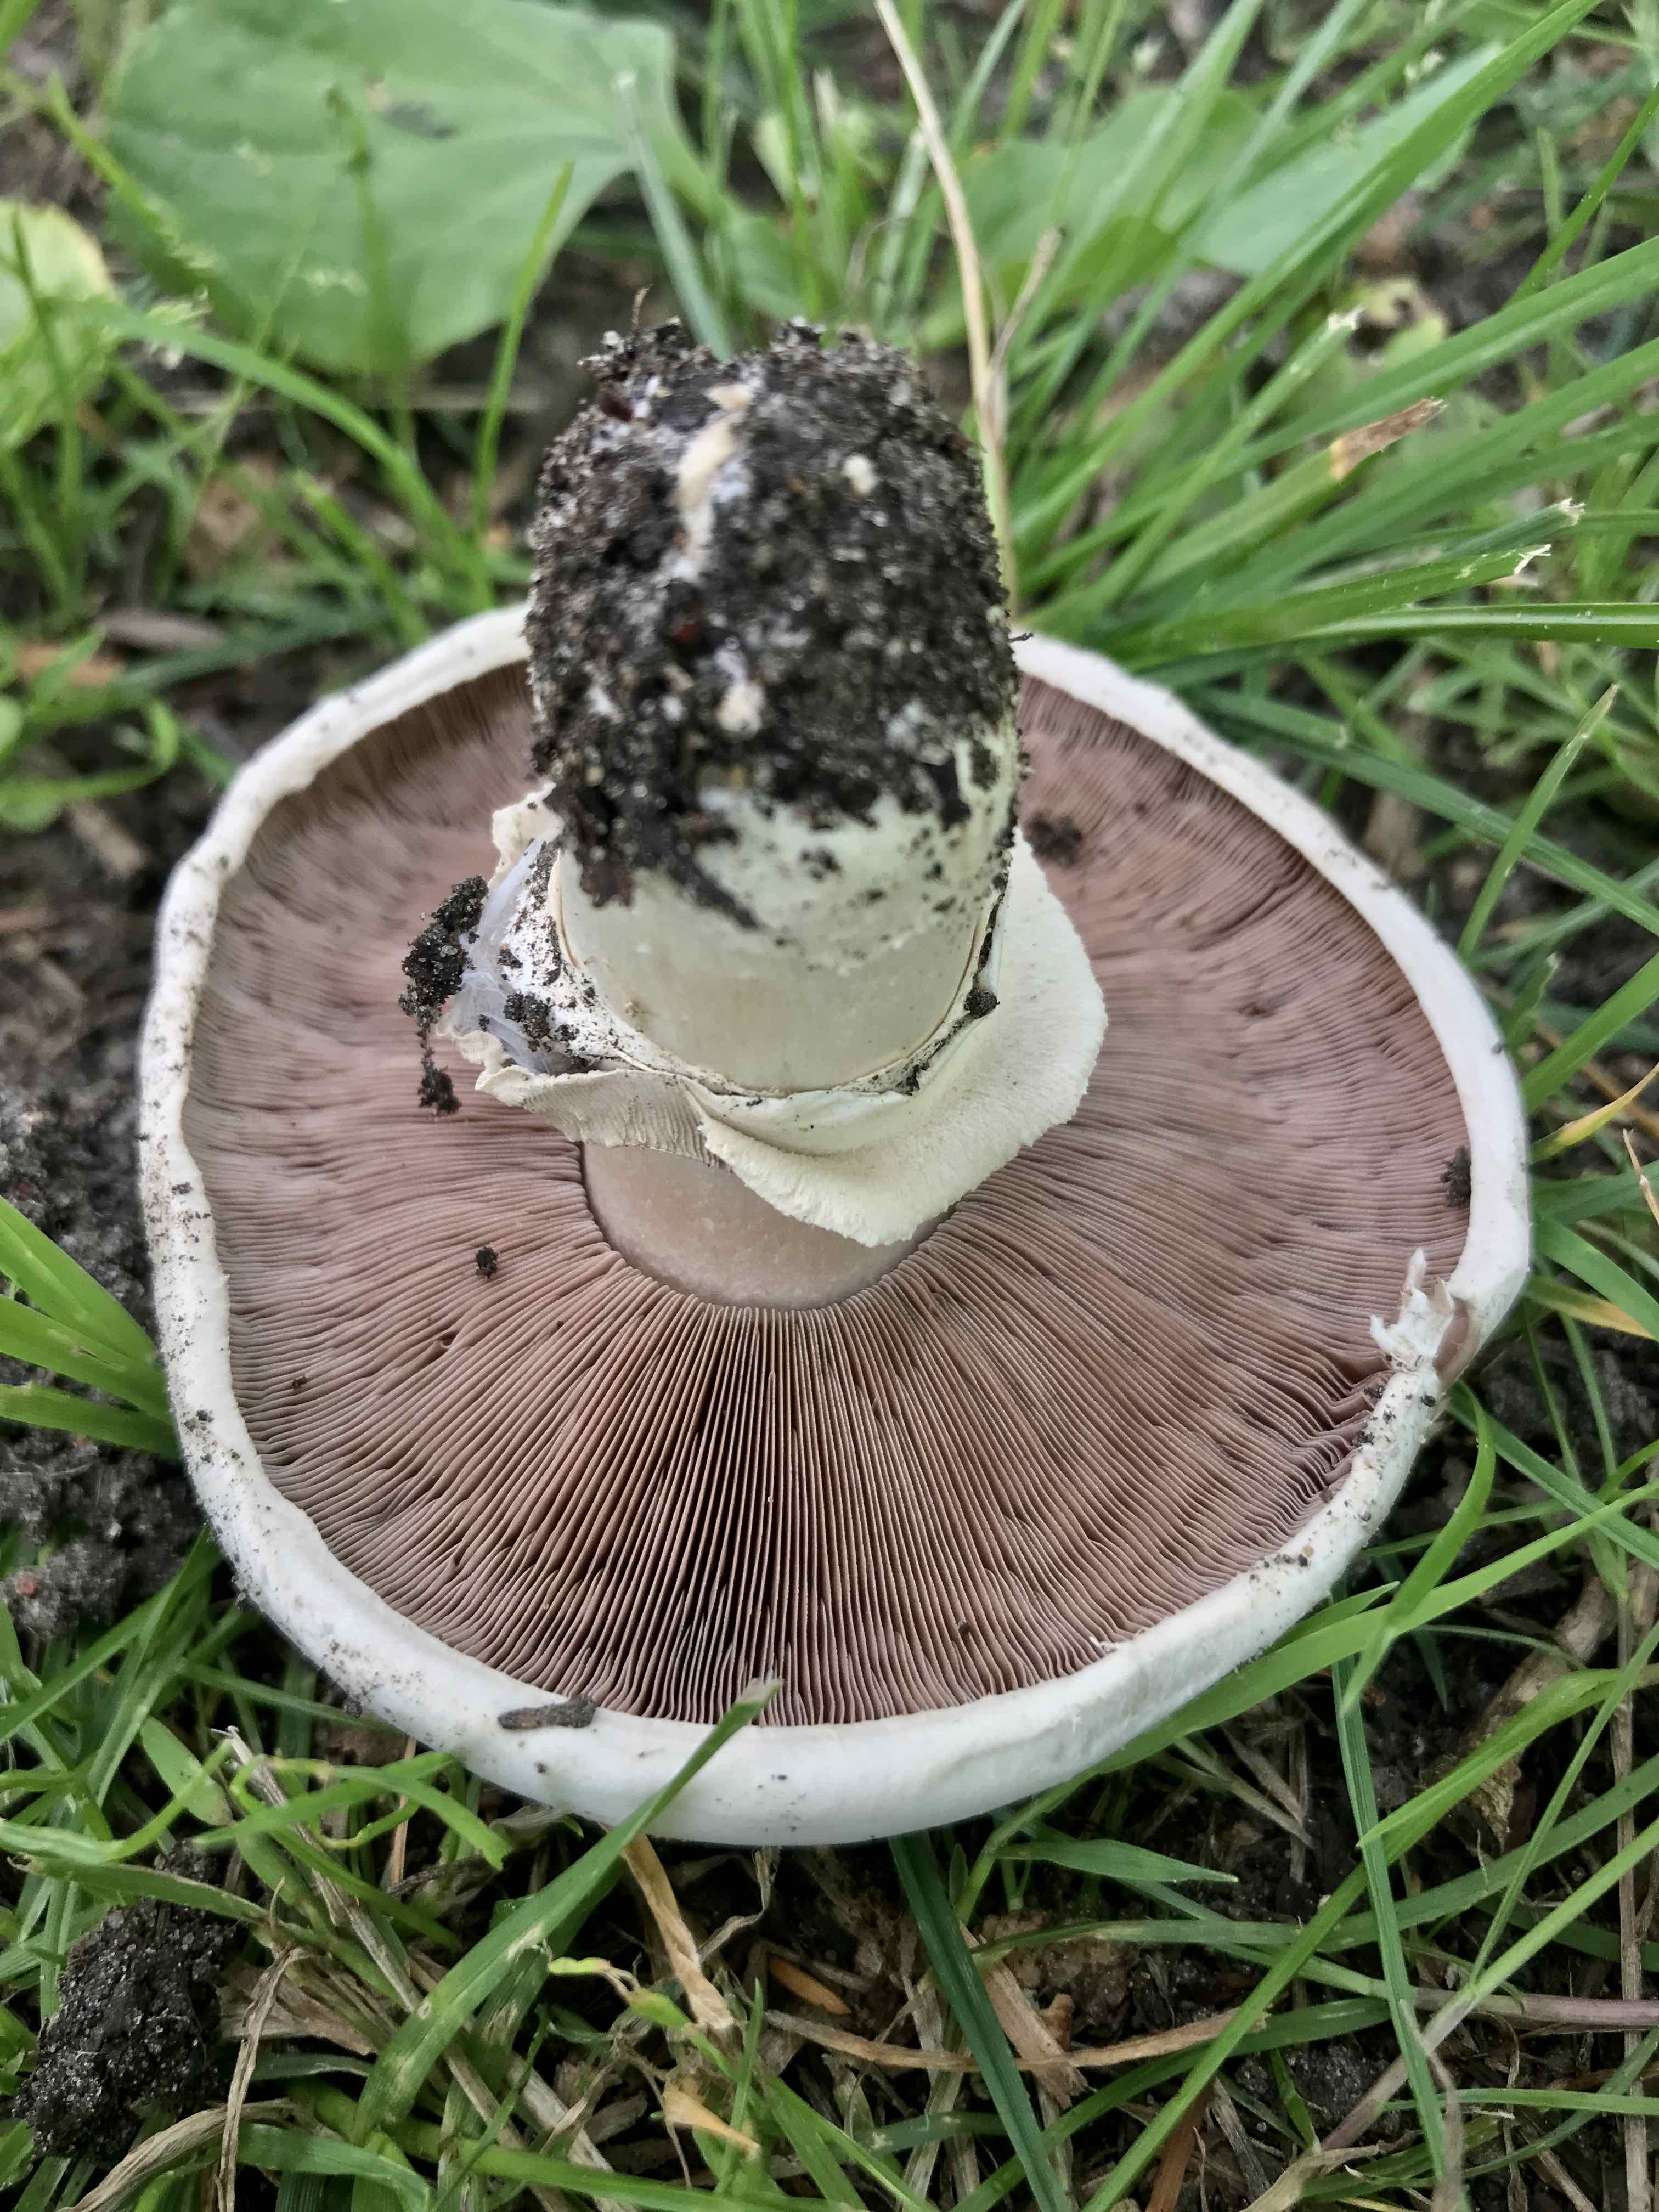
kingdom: Fungi
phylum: Basidiomycota
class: Agaricomycetes
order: Agaricales
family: Agaricaceae
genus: Agaricus
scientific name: Agaricus bitorquis
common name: vej-champignon
